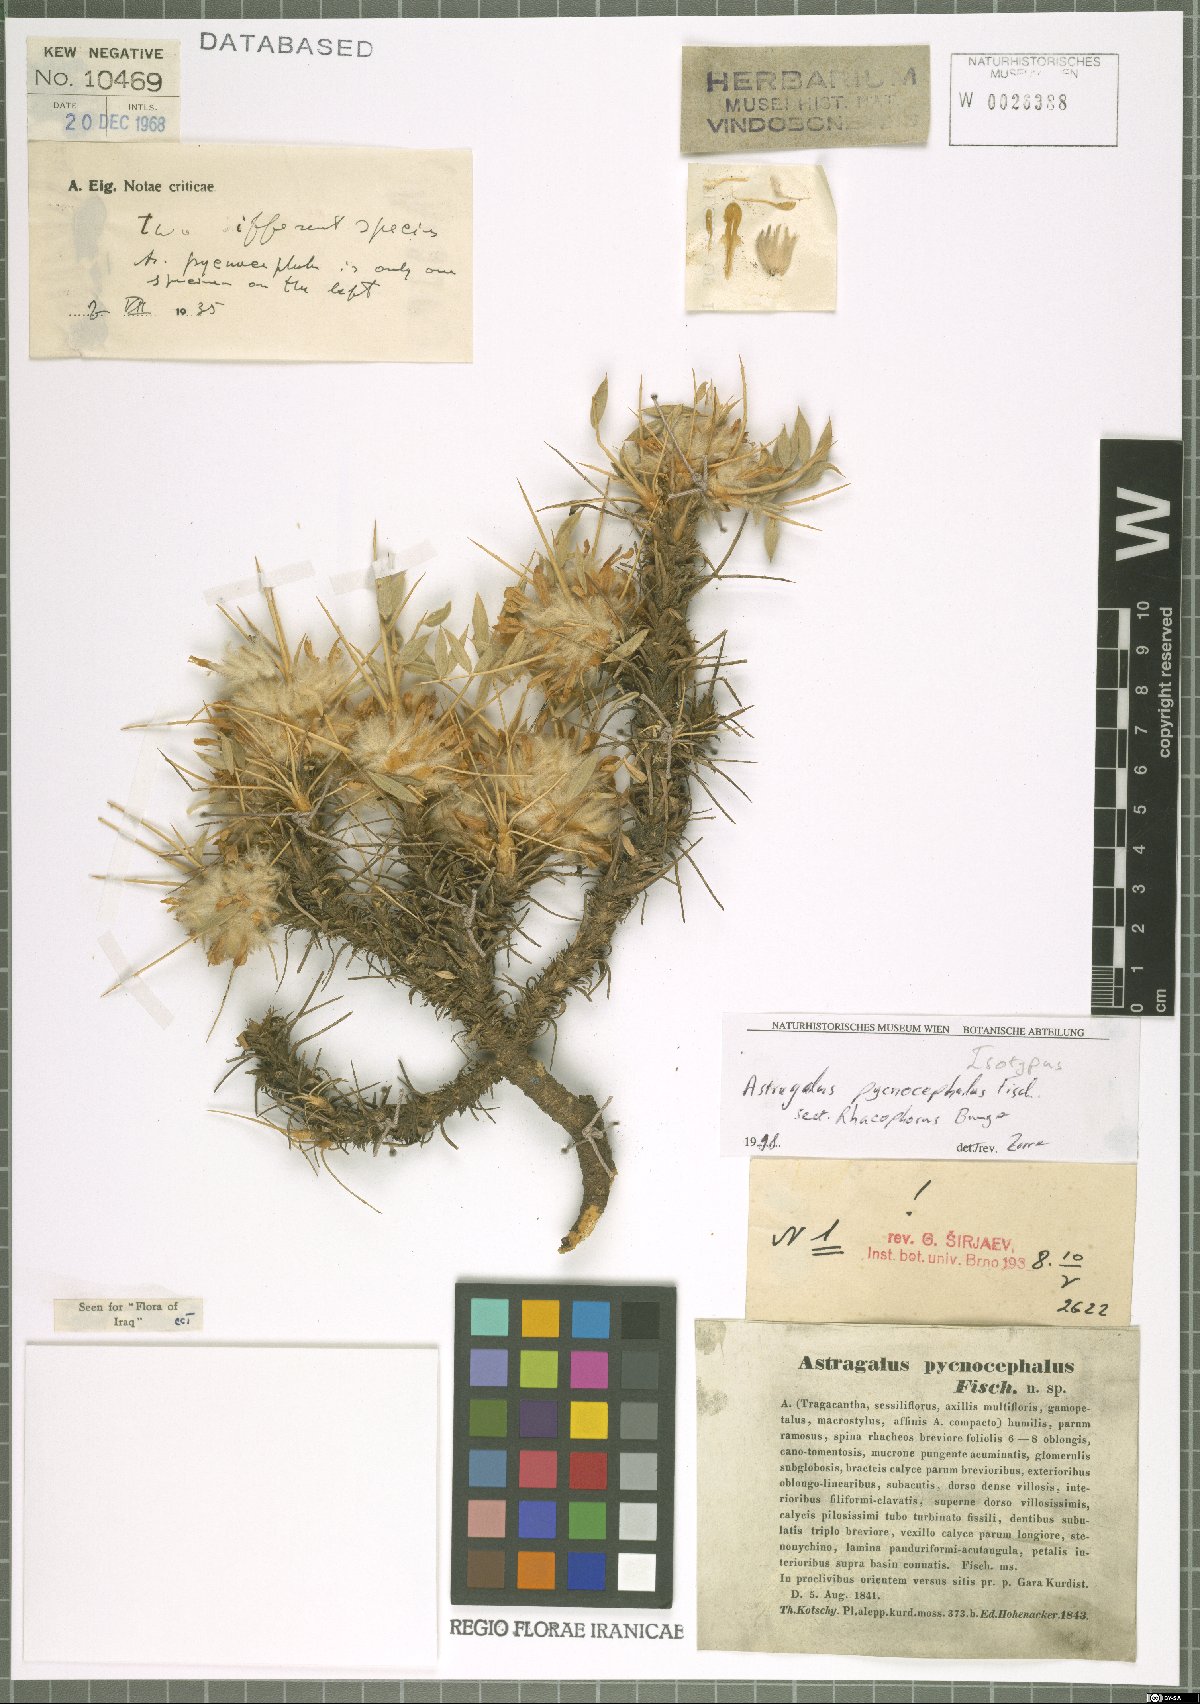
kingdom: Plantae
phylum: Tracheophyta
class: Magnoliopsida
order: Fabales
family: Fabaceae
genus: Astragalus
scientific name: Astragalus pycnocephalus
